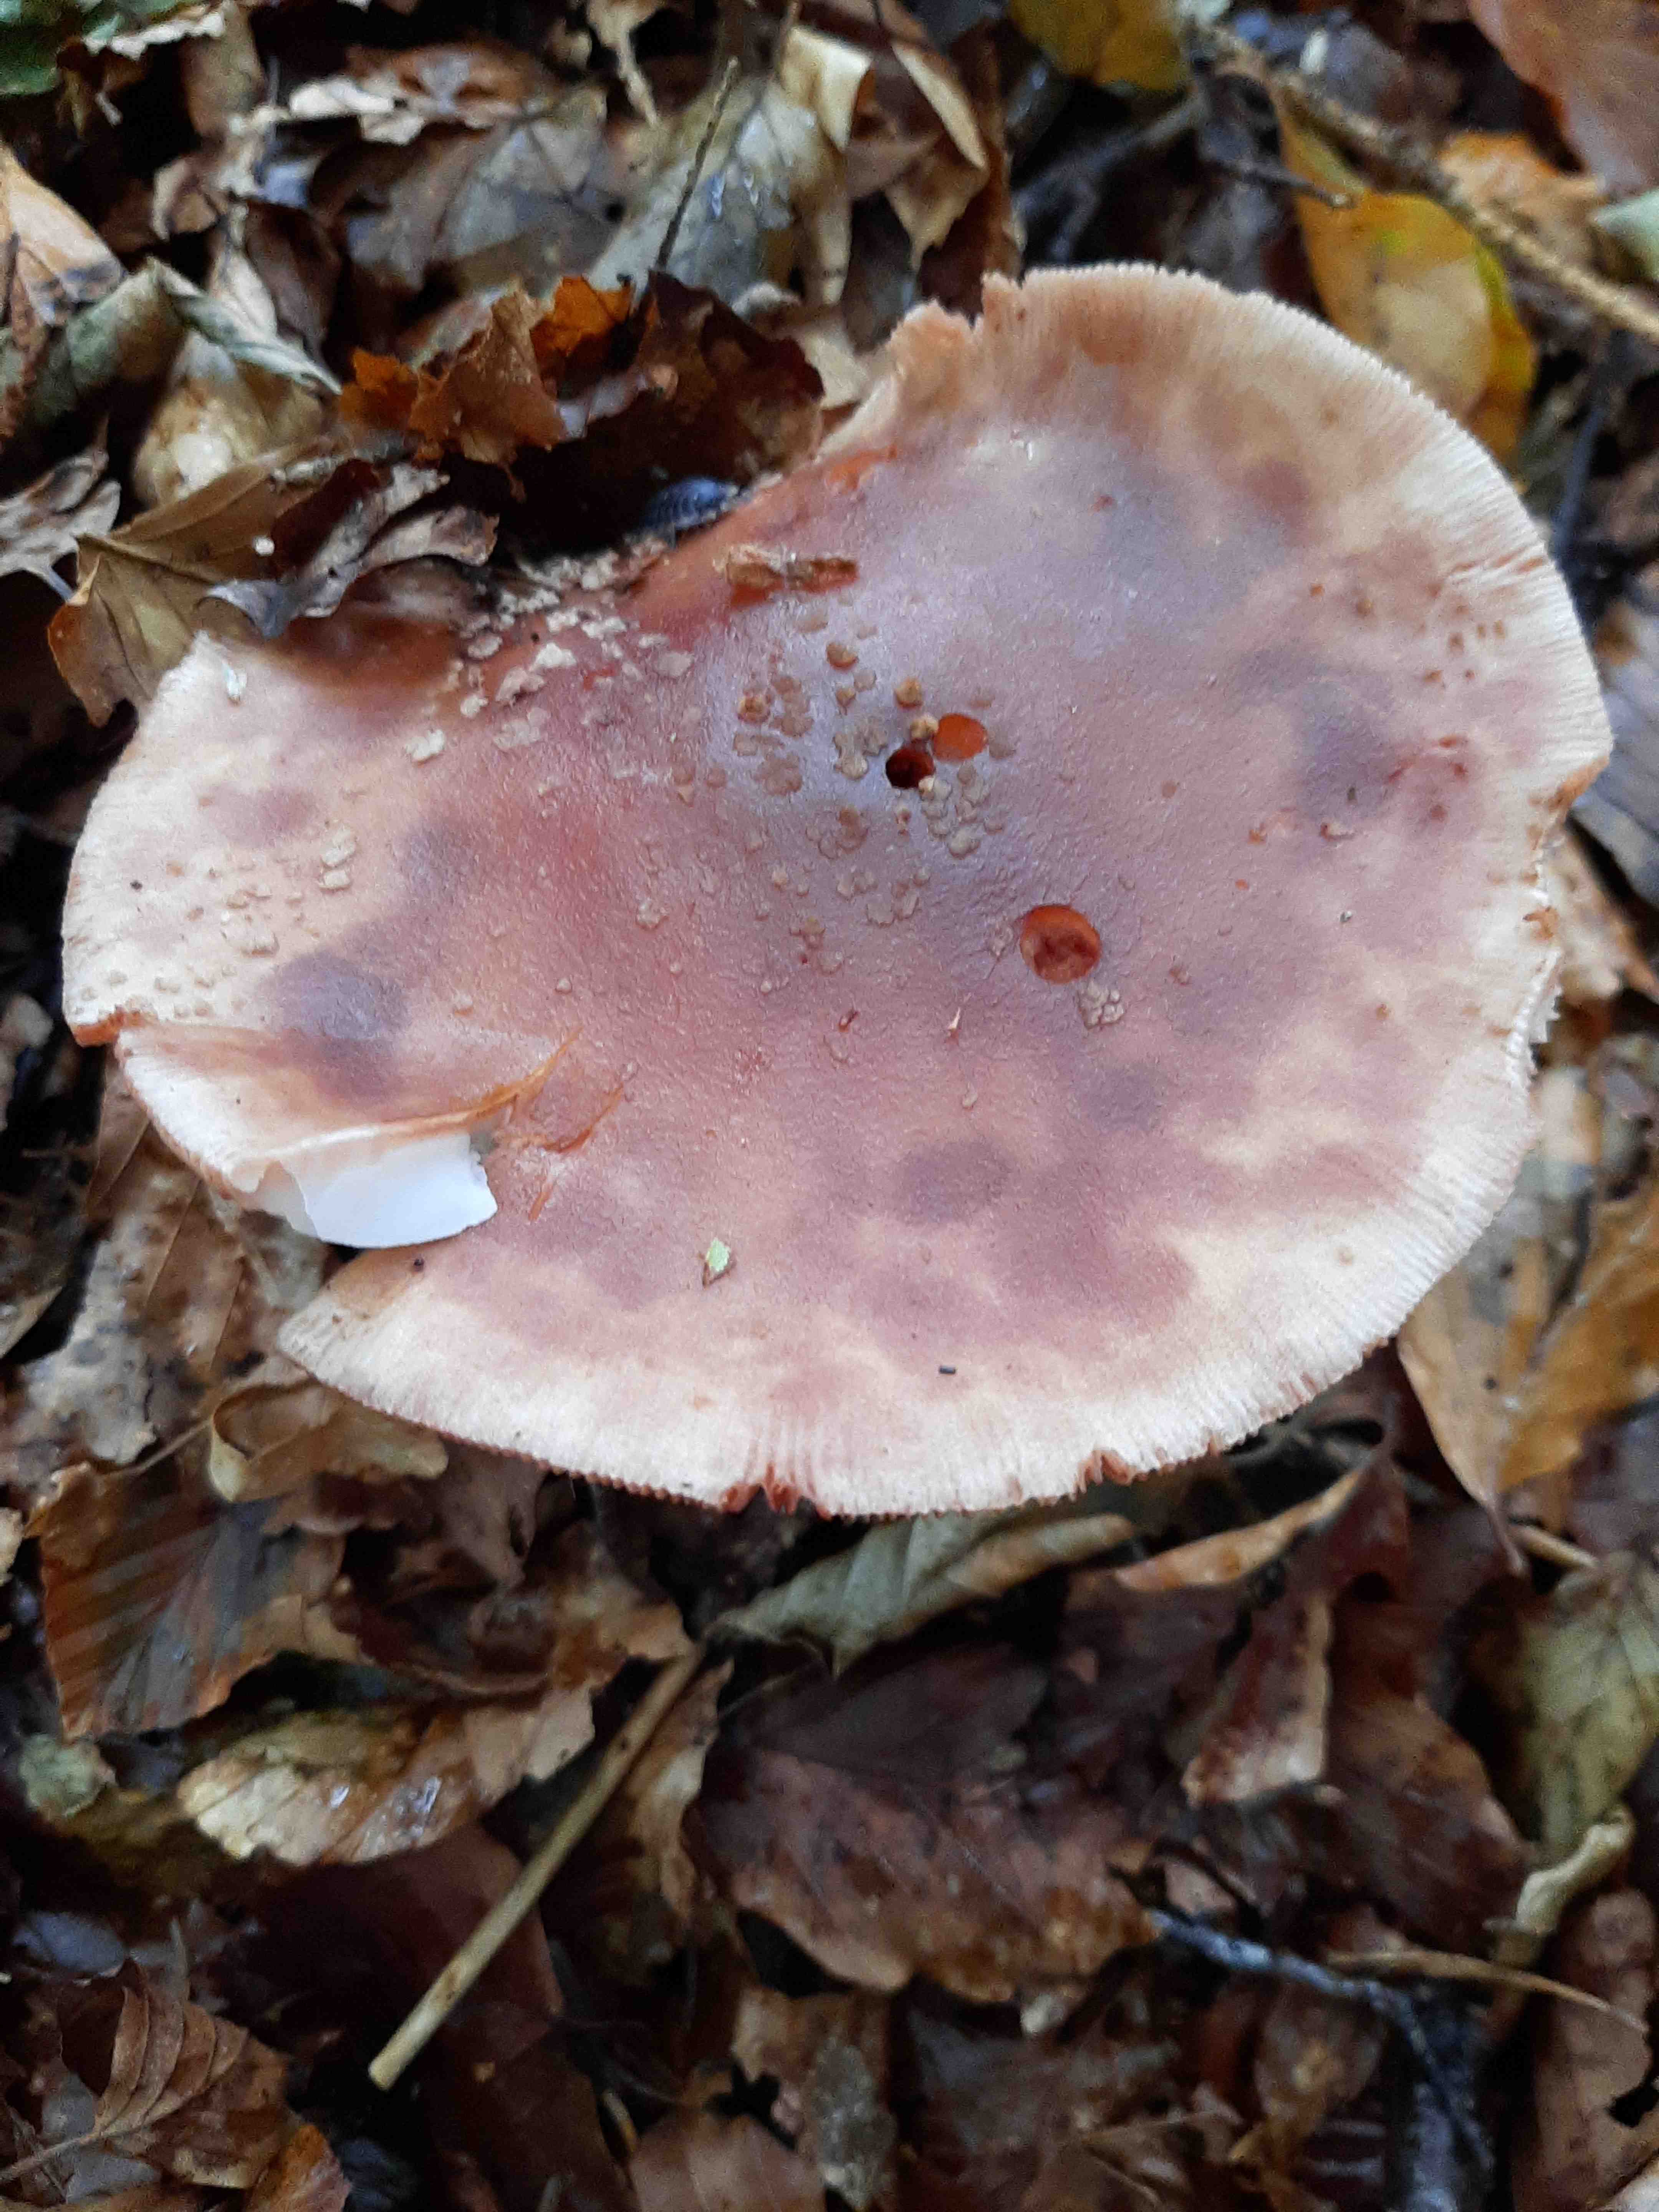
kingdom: Fungi
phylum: Basidiomycota
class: Agaricomycetes
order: Agaricales
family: Amanitaceae
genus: Amanita
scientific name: Amanita rubescens
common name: rødmende fluesvamp
